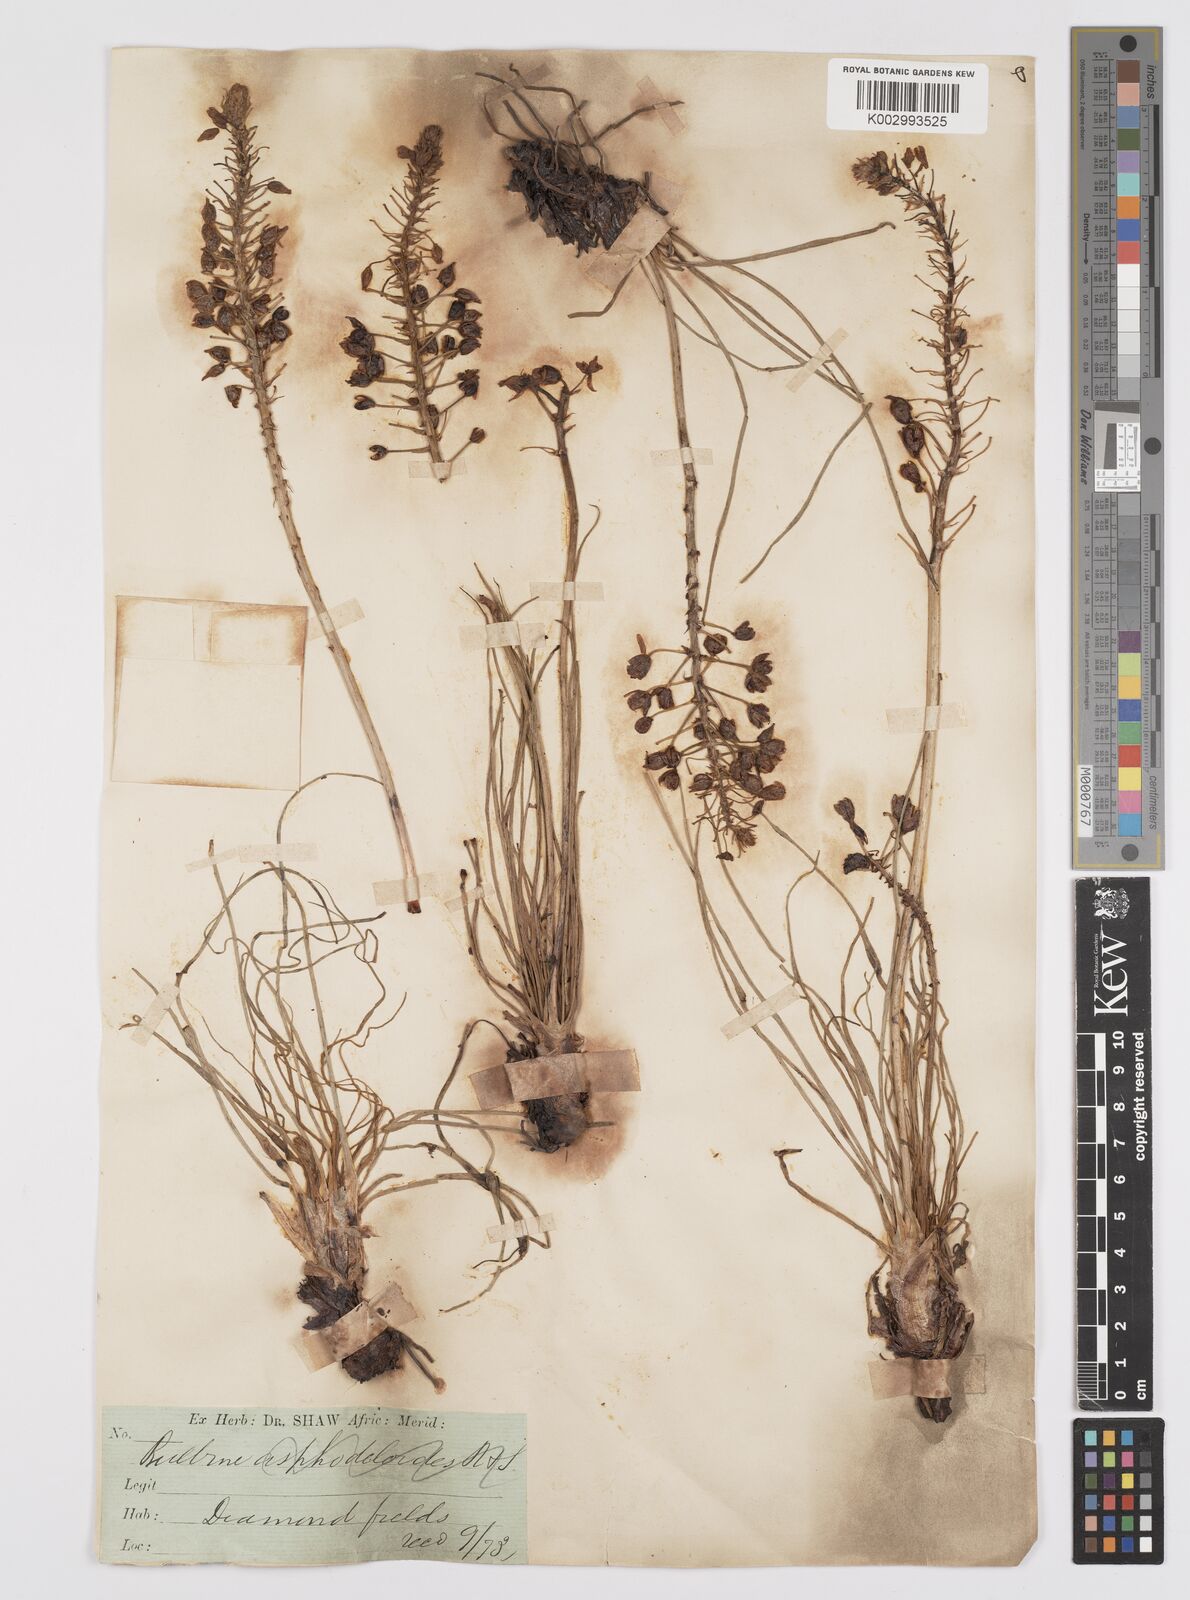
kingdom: Plantae
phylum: Tracheophyta
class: Liliopsida
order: Asparagales
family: Asphodelaceae
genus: Bulbine
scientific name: Bulbine asphodeloides
